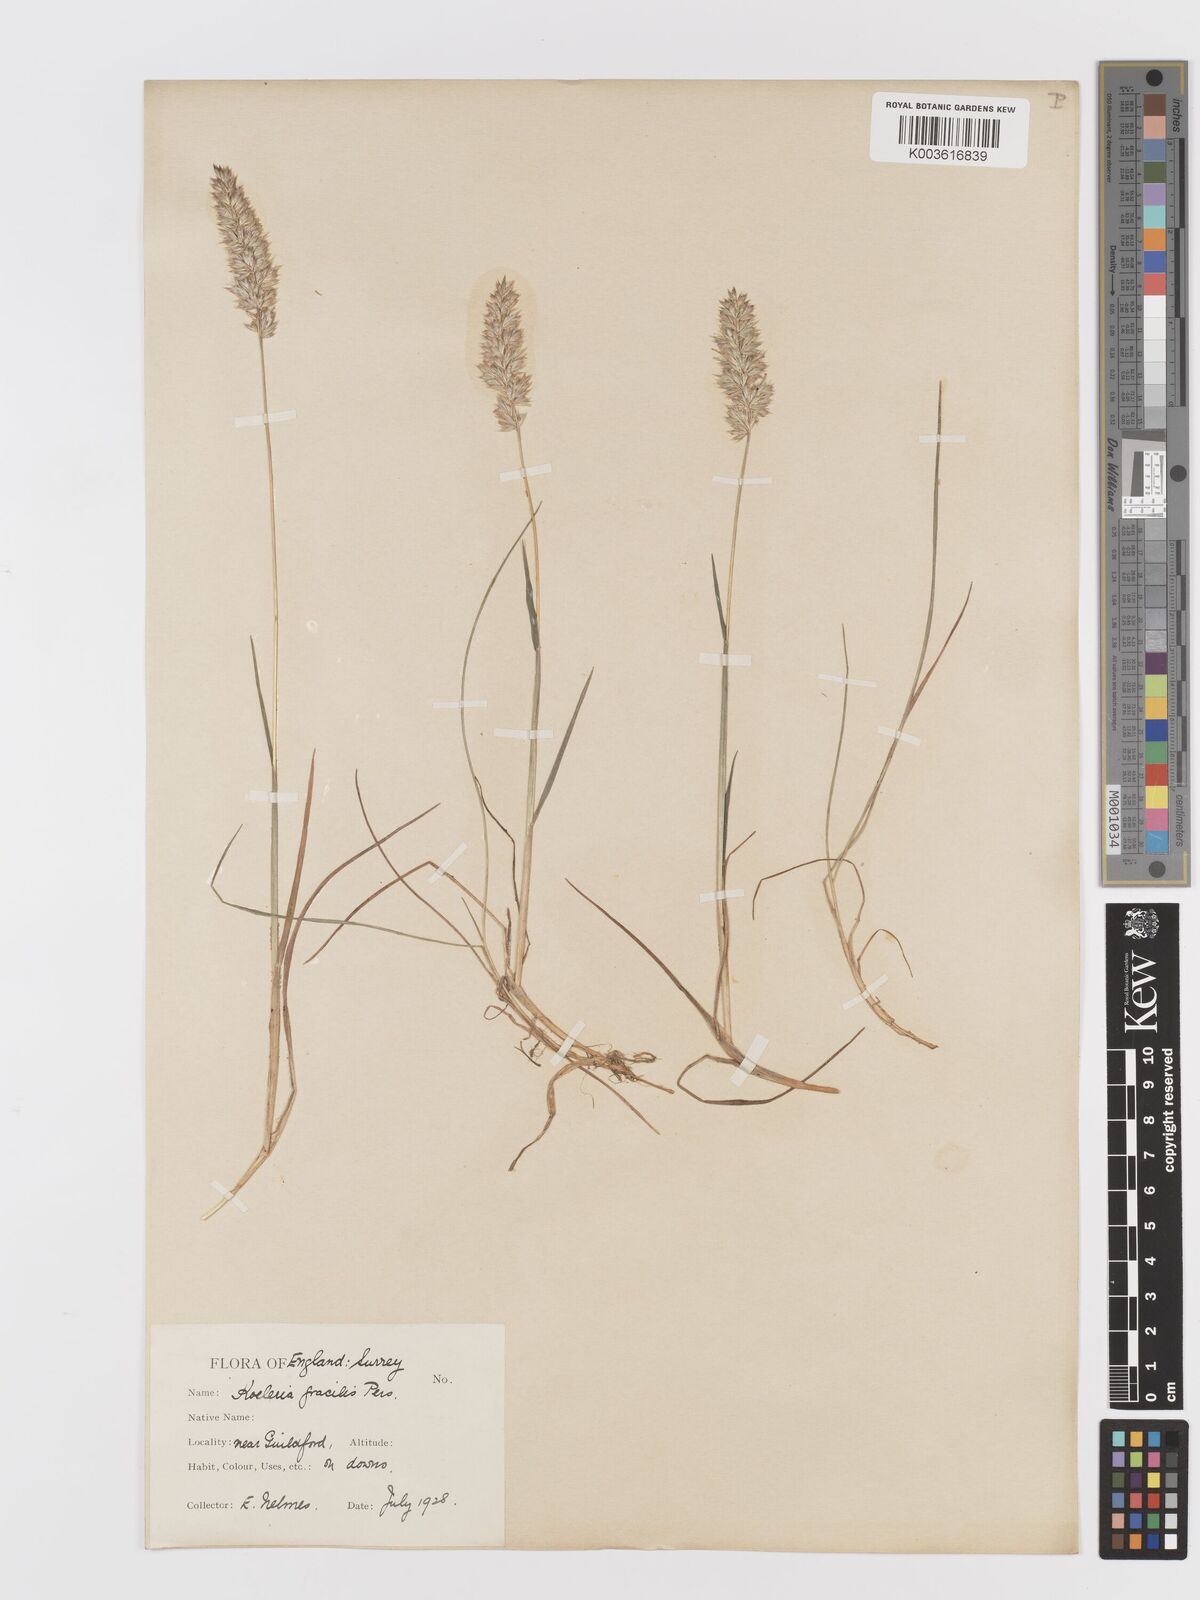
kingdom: Plantae
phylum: Tracheophyta
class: Liliopsida
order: Poales
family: Poaceae
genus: Koeleria
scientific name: Koeleria
